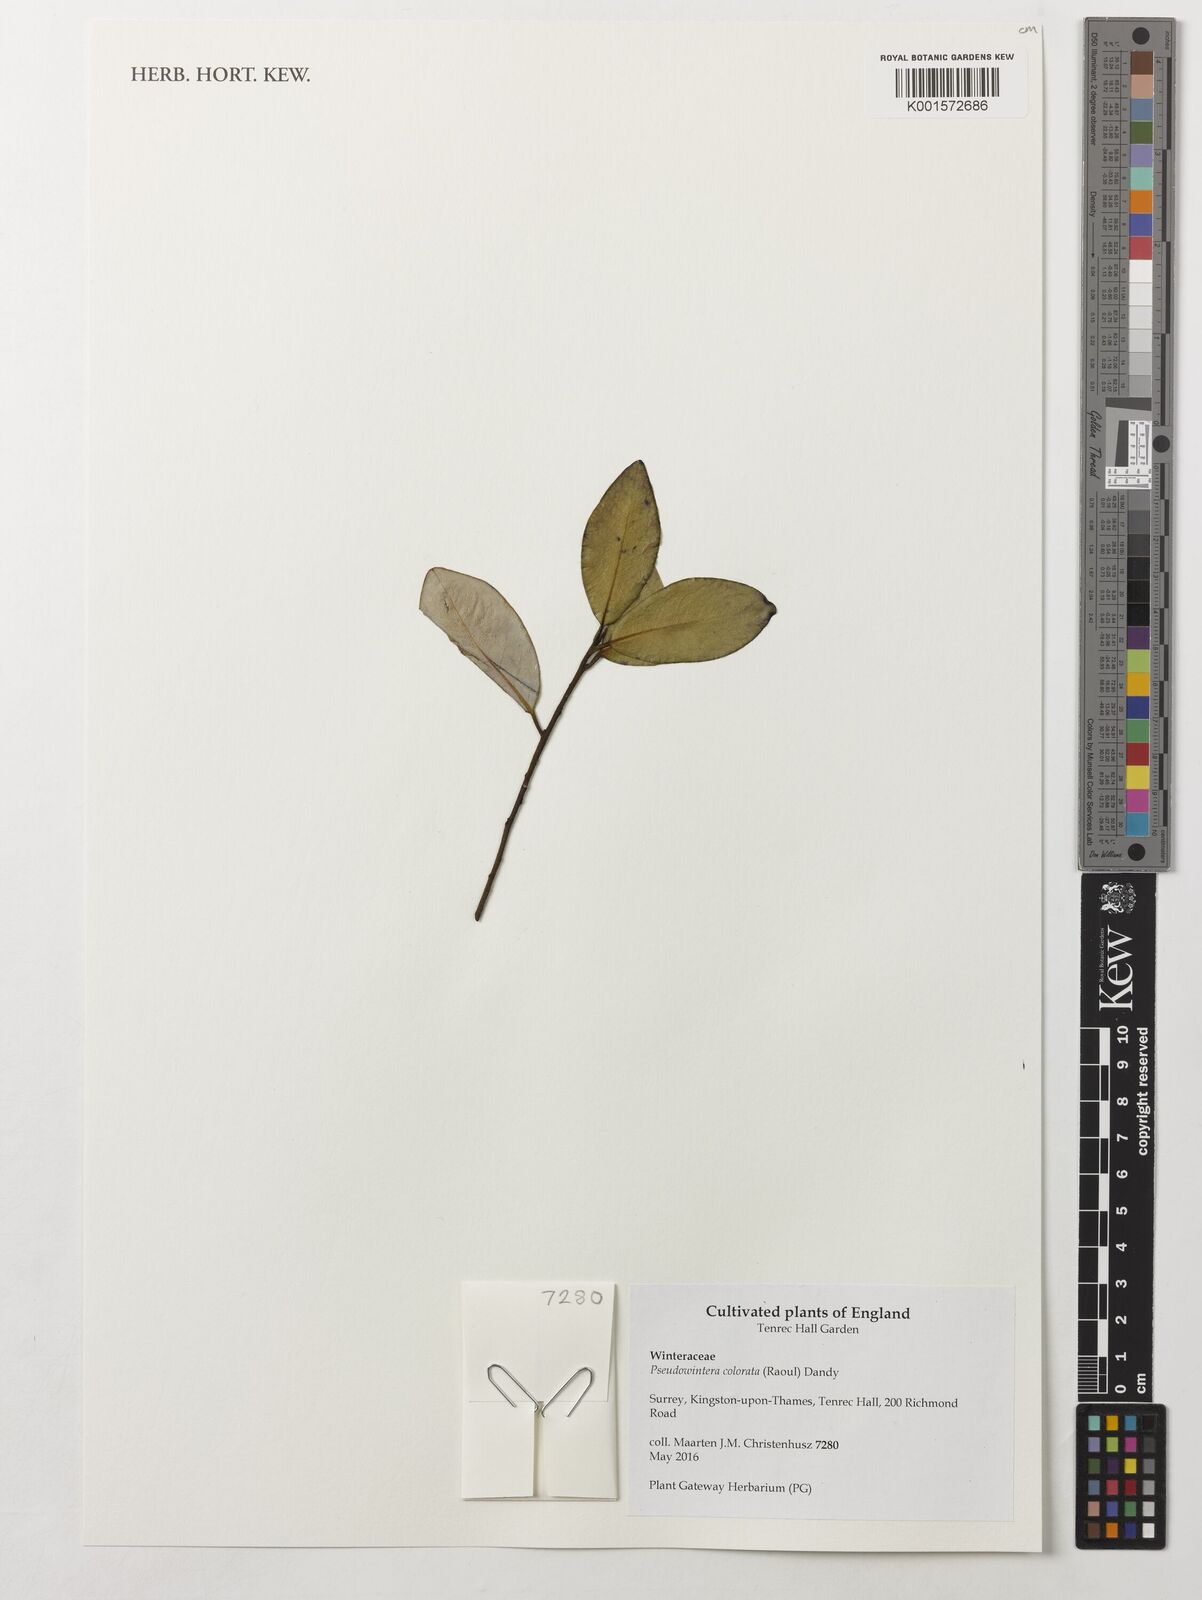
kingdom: Plantae
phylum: Tracheophyta
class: Magnoliopsida
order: Canellales
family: Winteraceae
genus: Pseudowintera
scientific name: Pseudowintera colorata
